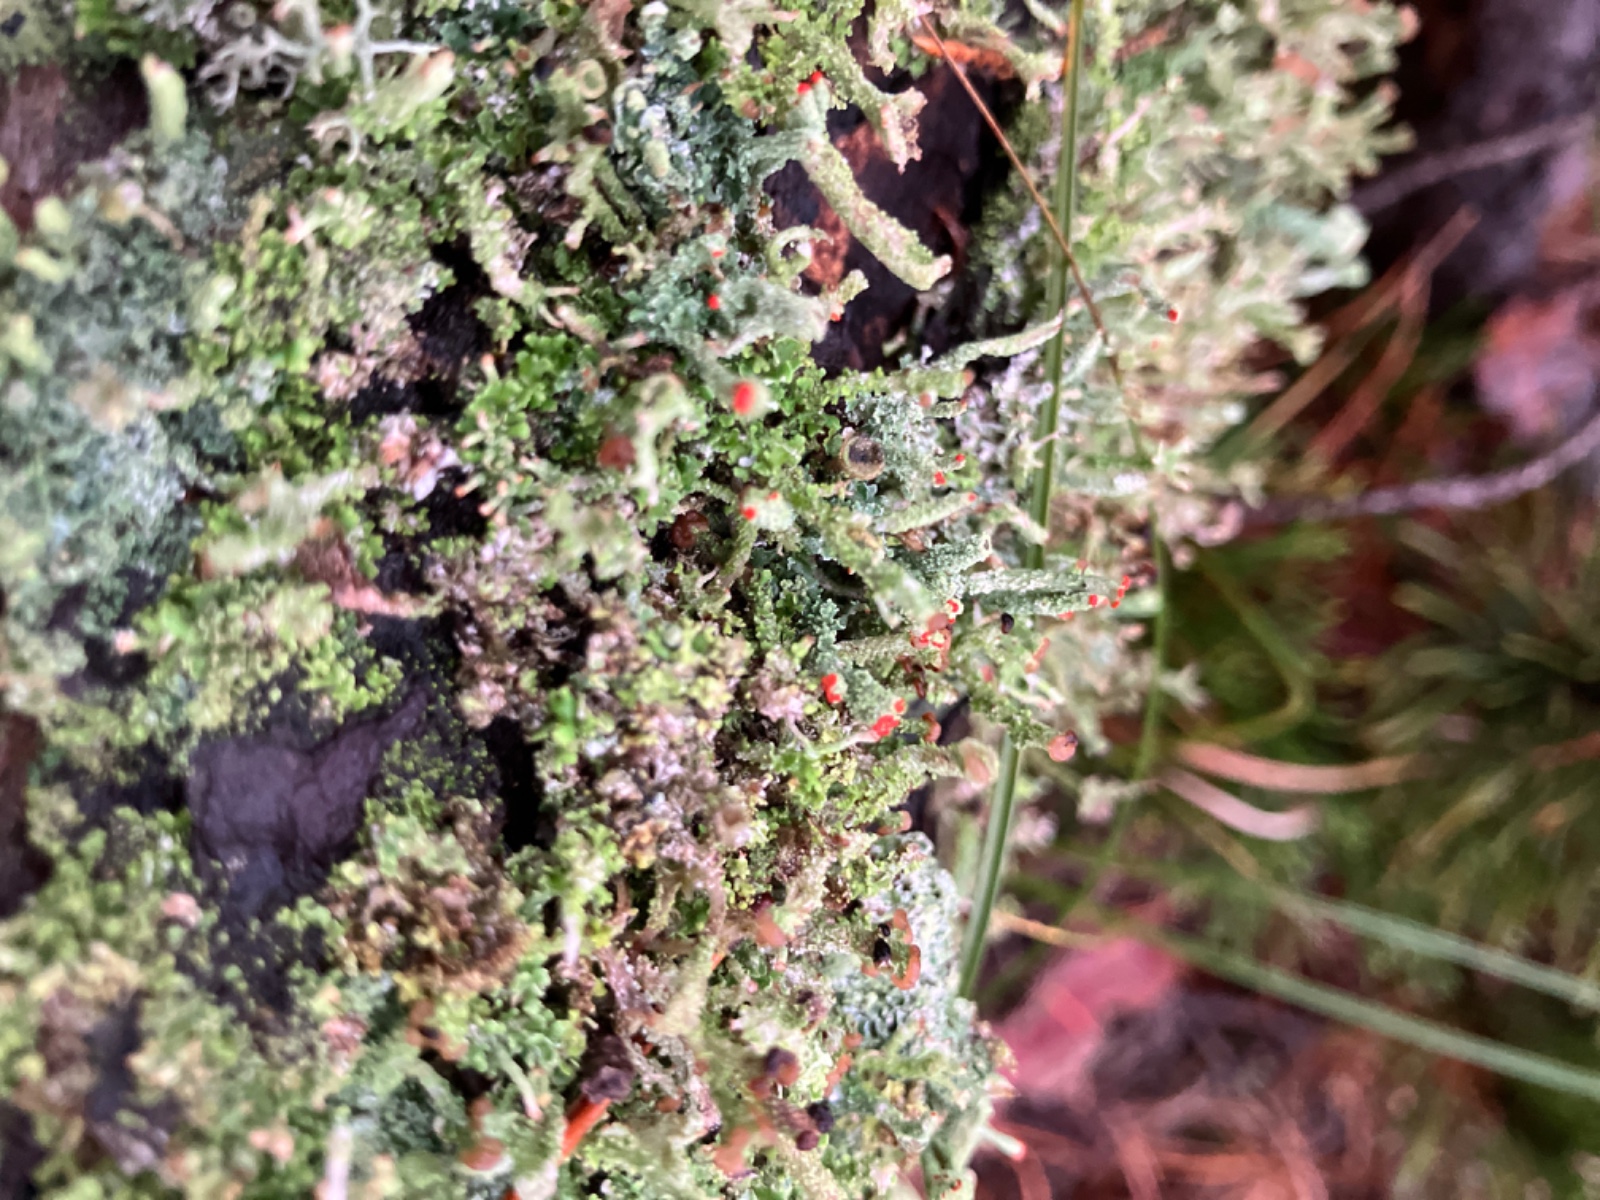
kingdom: Fungi
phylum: Ascomycota
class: Lecanoromycetes
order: Lecanorales
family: Cladoniaceae
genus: Cladonia
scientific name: Cladonia polydactyla
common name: vifte-bægerlav
